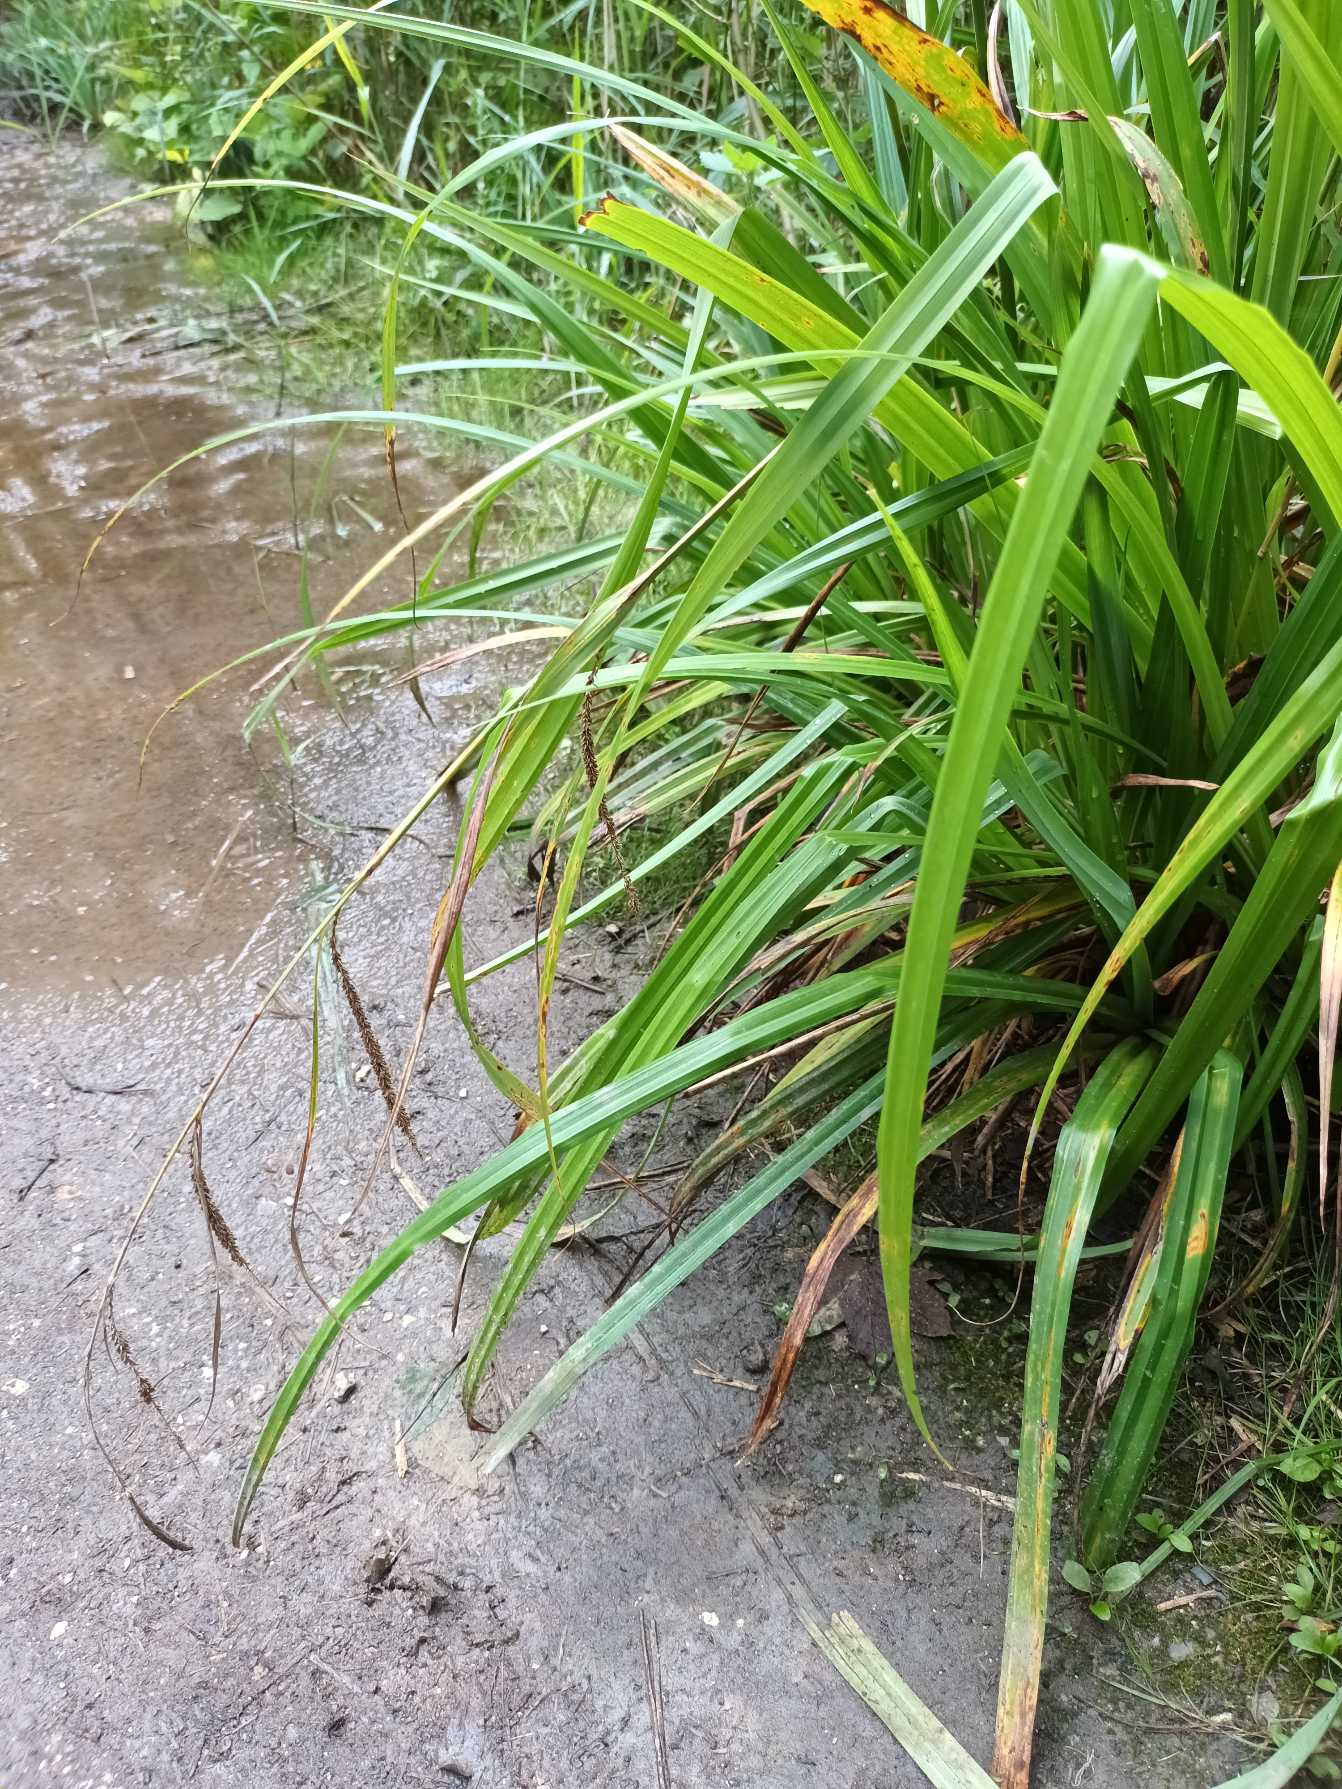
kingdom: Plantae
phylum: Tracheophyta
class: Liliopsida
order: Poales
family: Cyperaceae
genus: Carex
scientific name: Carex pendula
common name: Kæmpe-star
